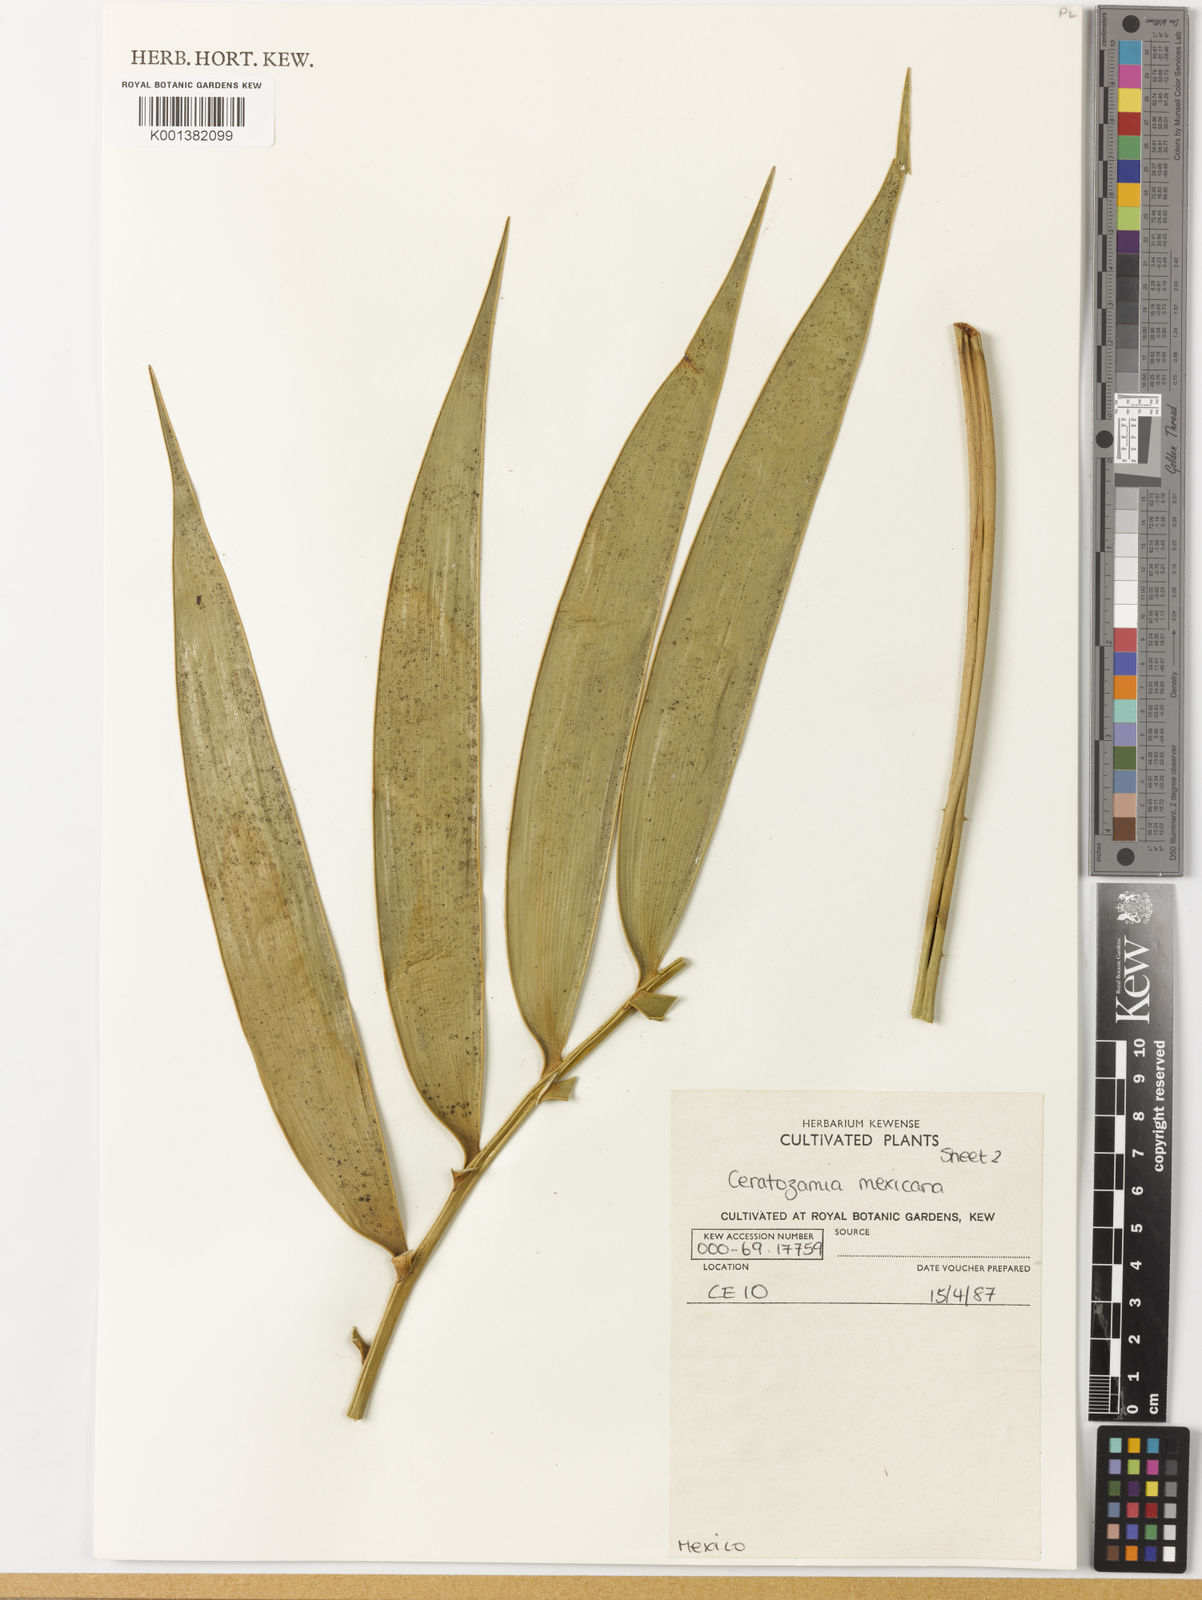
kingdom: Plantae
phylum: Tracheophyta
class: Cycadopsida
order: Cycadales
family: Zamiaceae
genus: Ceratozamia
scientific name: Ceratozamia mexicana
